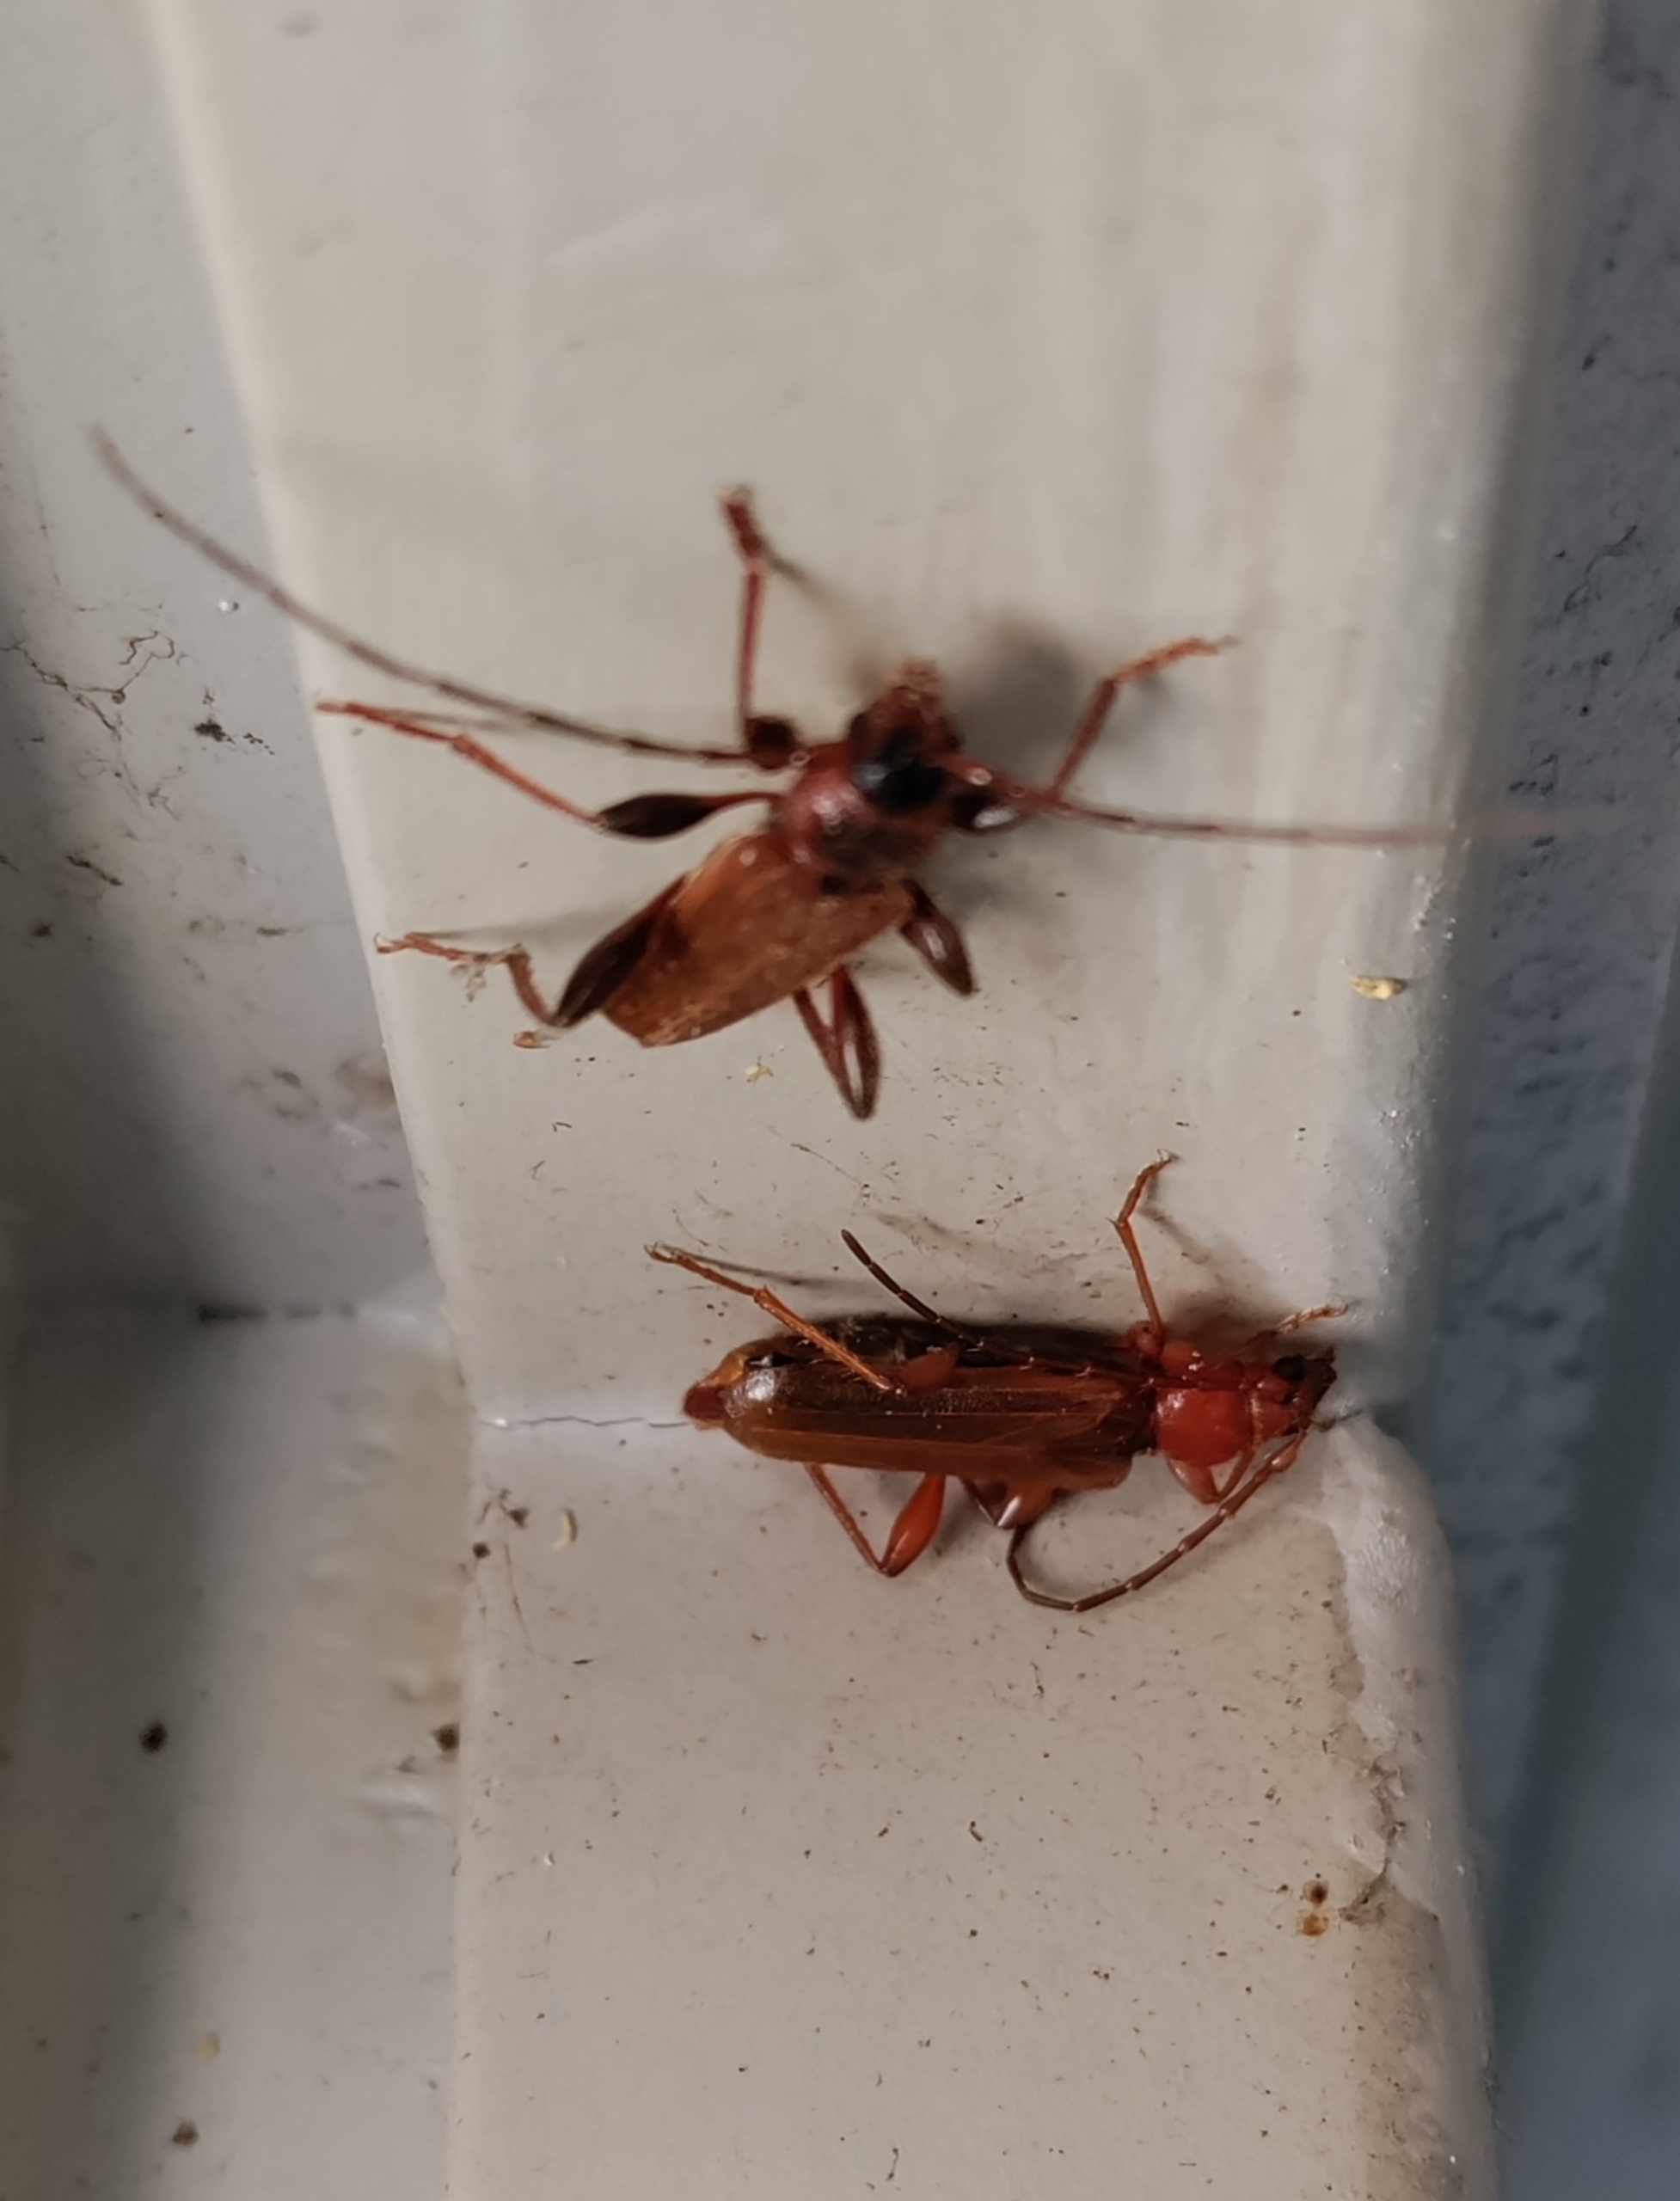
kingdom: Animalia
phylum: Arthropoda
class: Insecta
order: Coleoptera
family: Cerambycidae
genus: Phymatodes
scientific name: Phymatodes testaceus
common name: Bøgebuk
